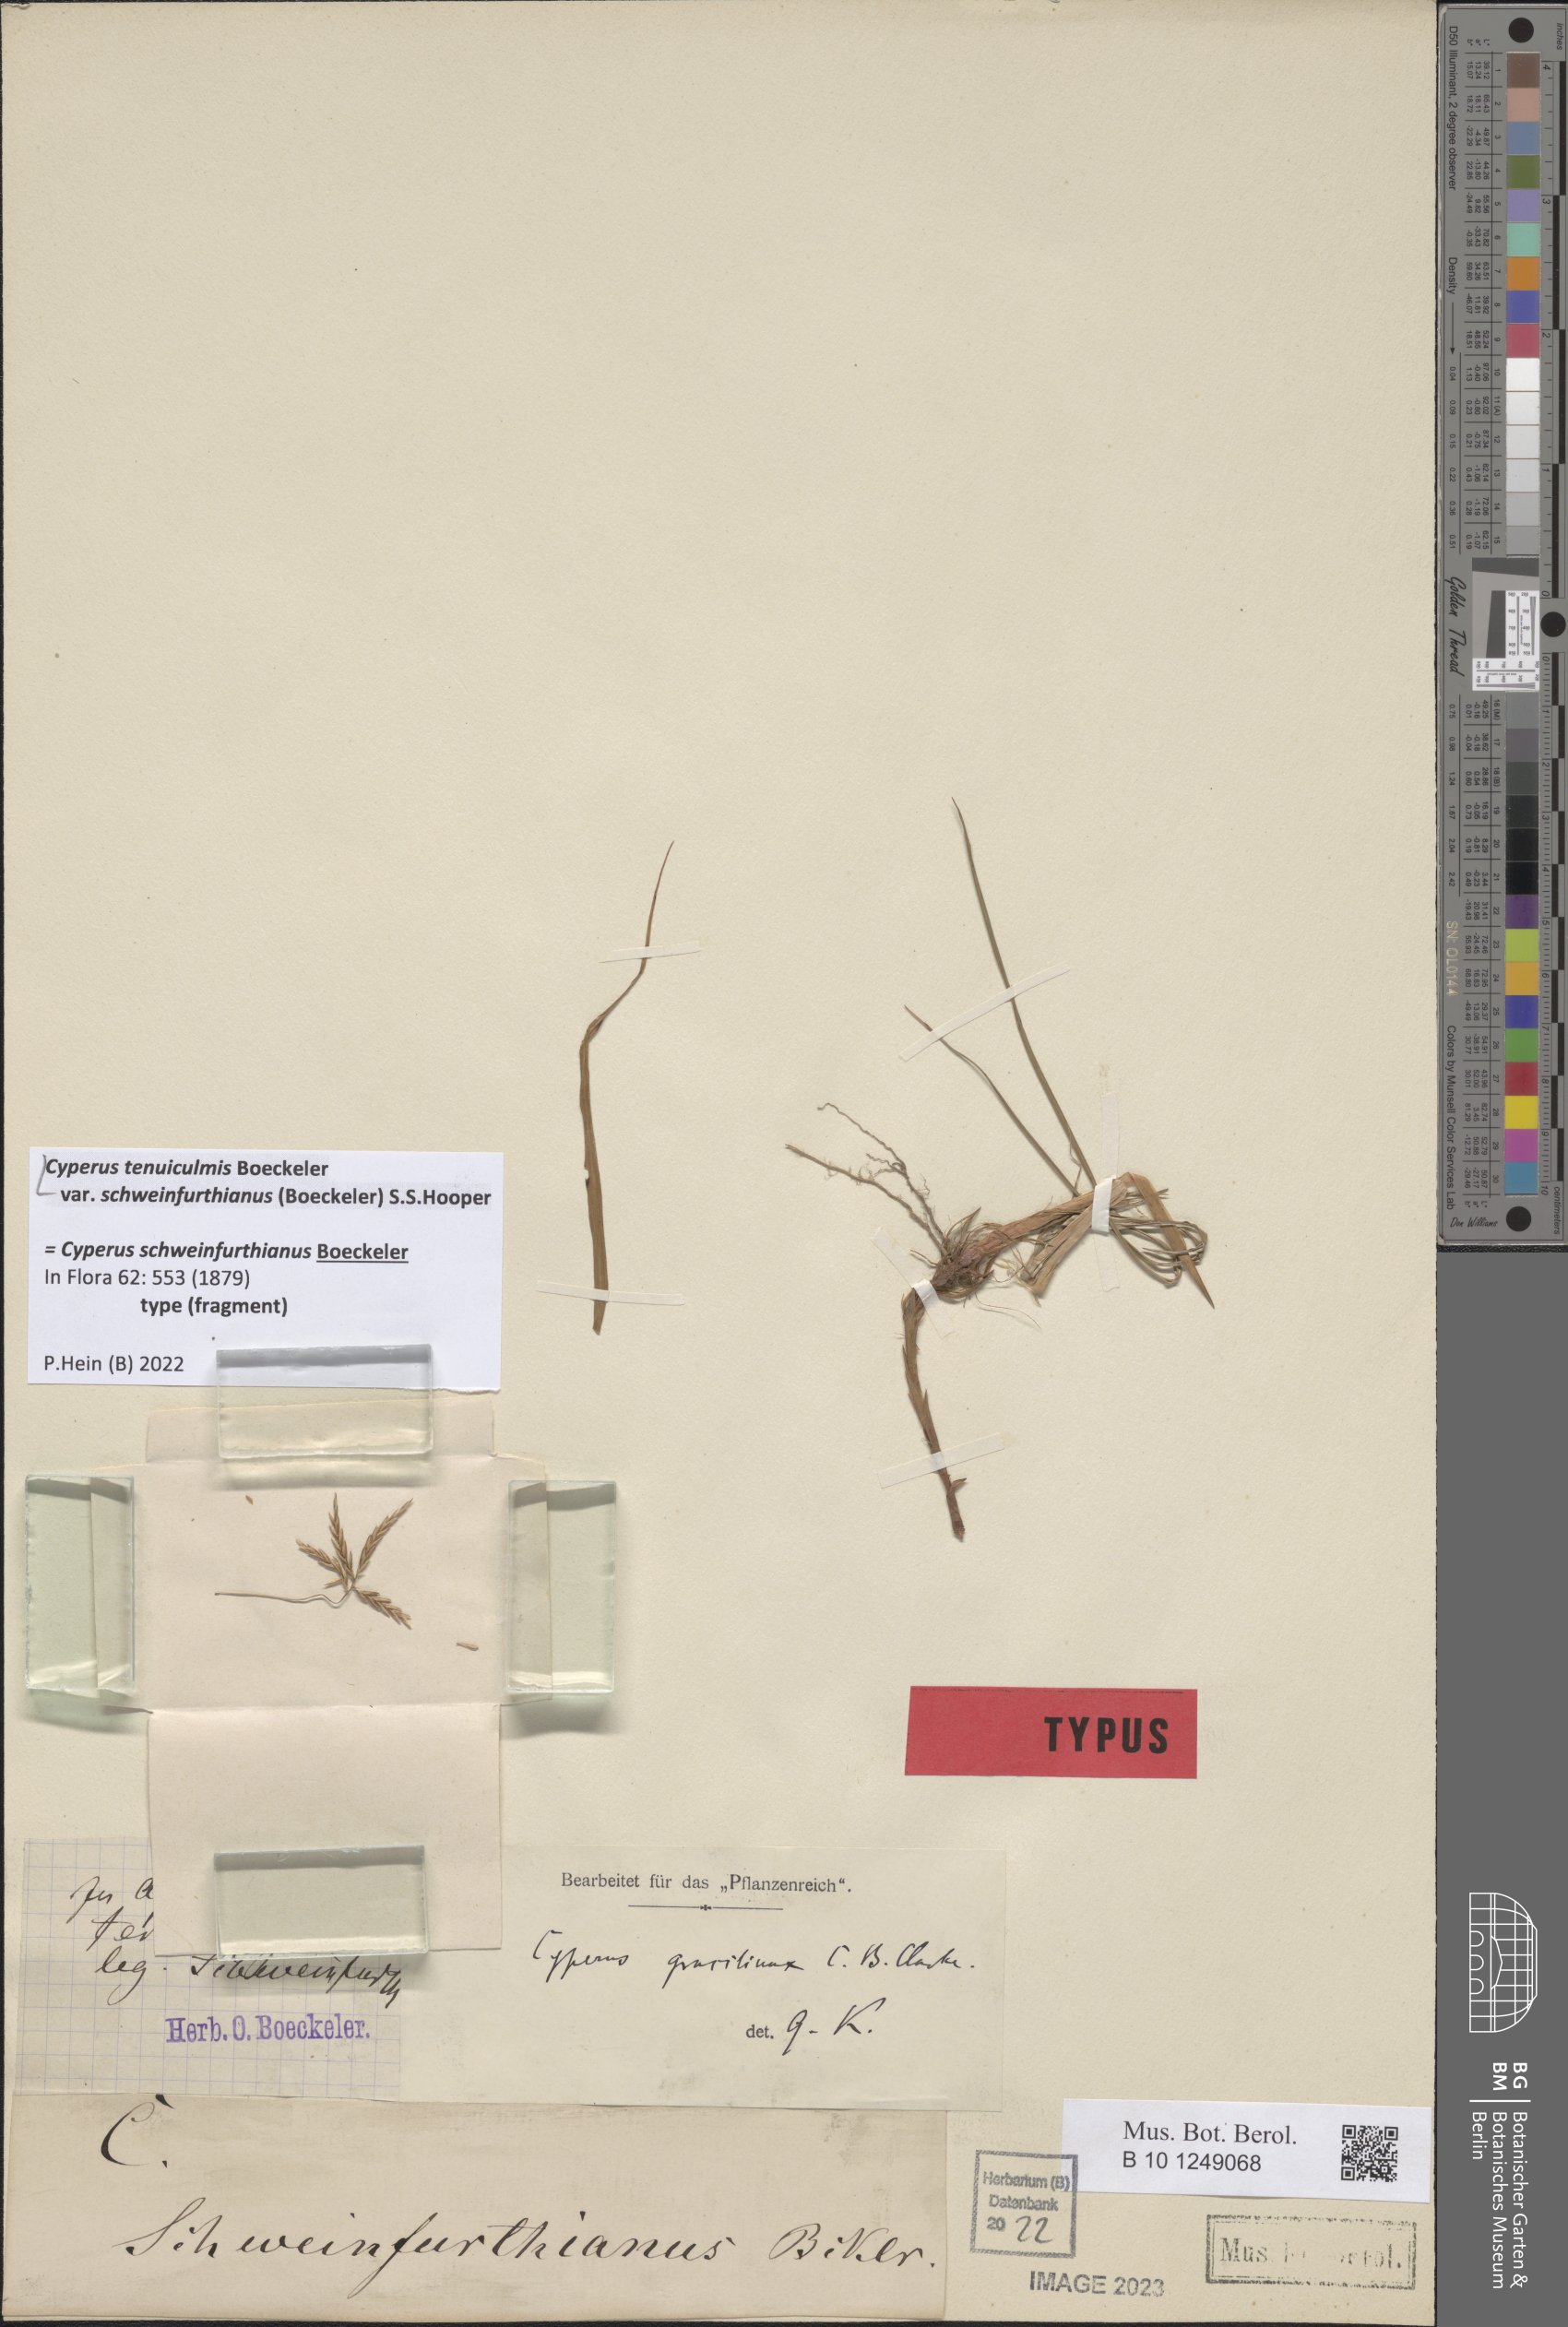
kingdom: Plantae
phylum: Tracheophyta
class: Liliopsida
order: Poales
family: Cyperaceae
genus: Cyperus
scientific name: Cyperus tenuiculmis
